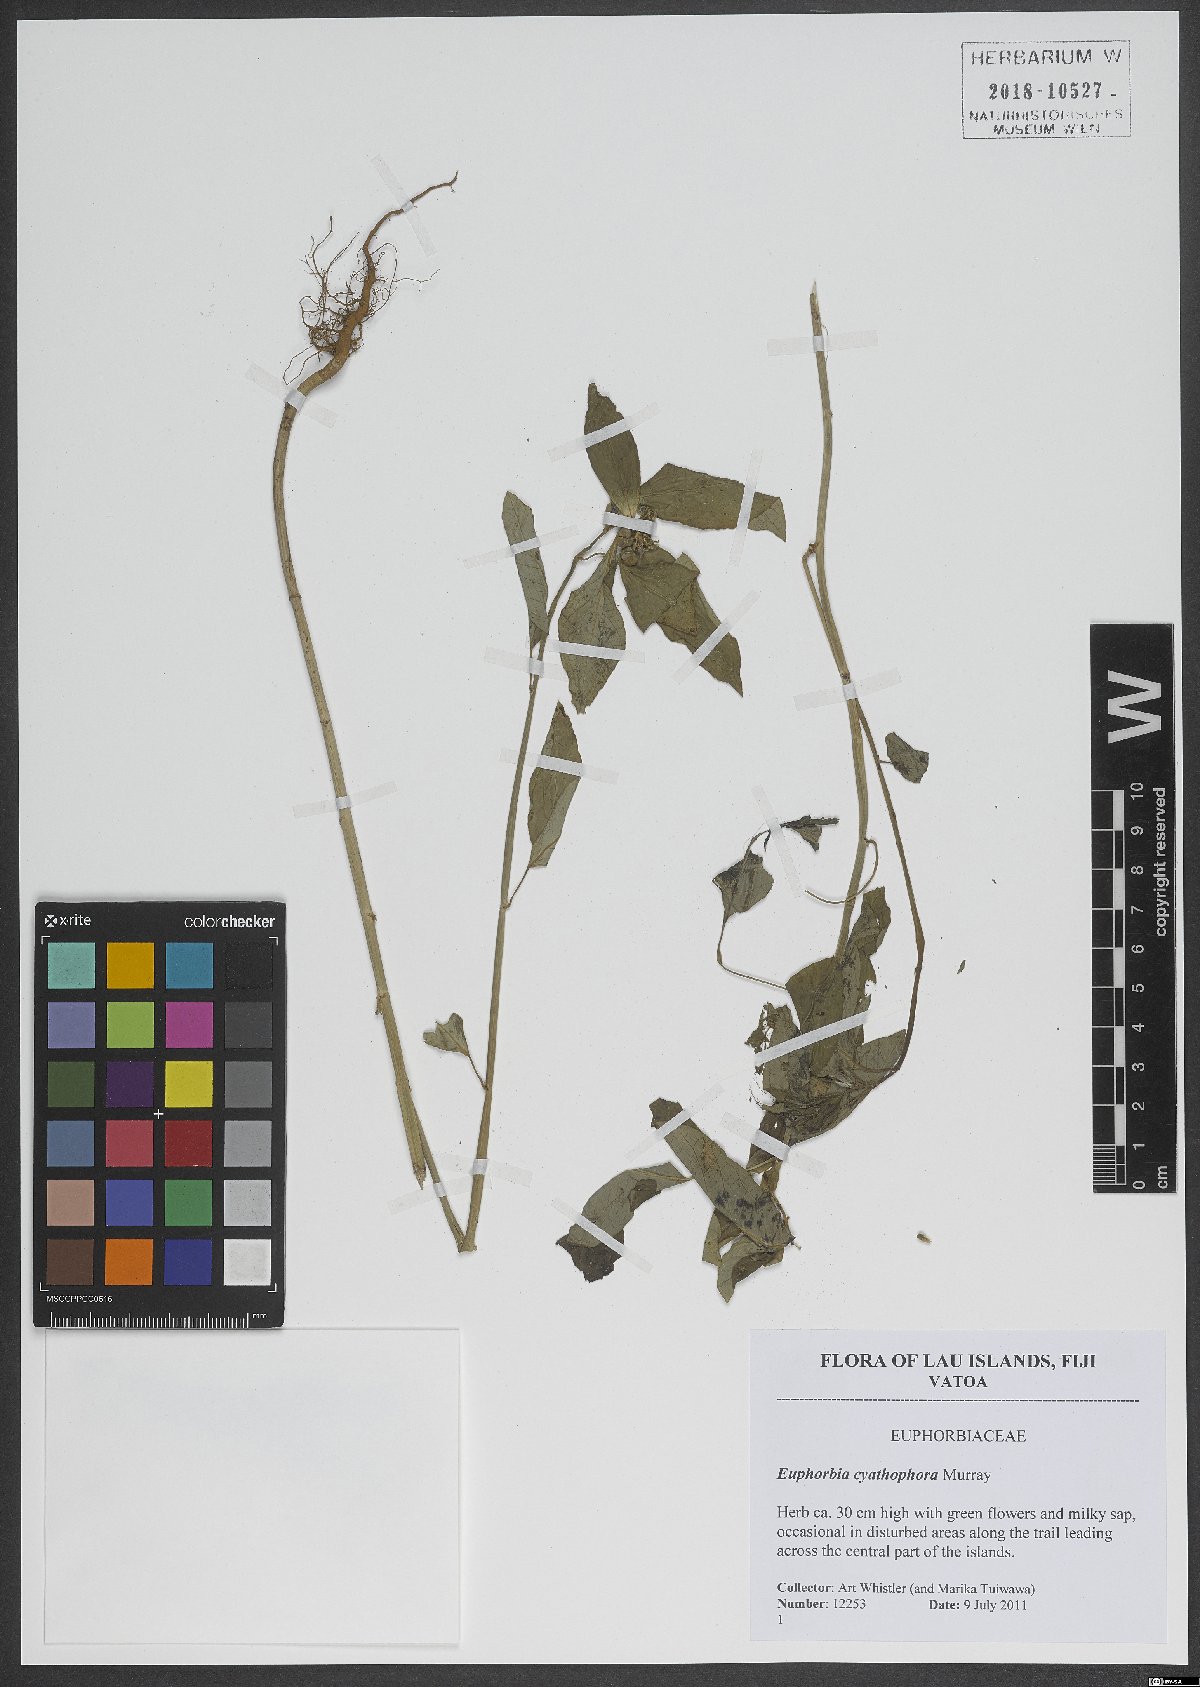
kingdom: Plantae
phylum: Tracheophyta
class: Magnoliopsida
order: Malpighiales
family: Euphorbiaceae
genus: Euphorbia
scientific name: Euphorbia heterophylla
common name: Mexican fireplant
